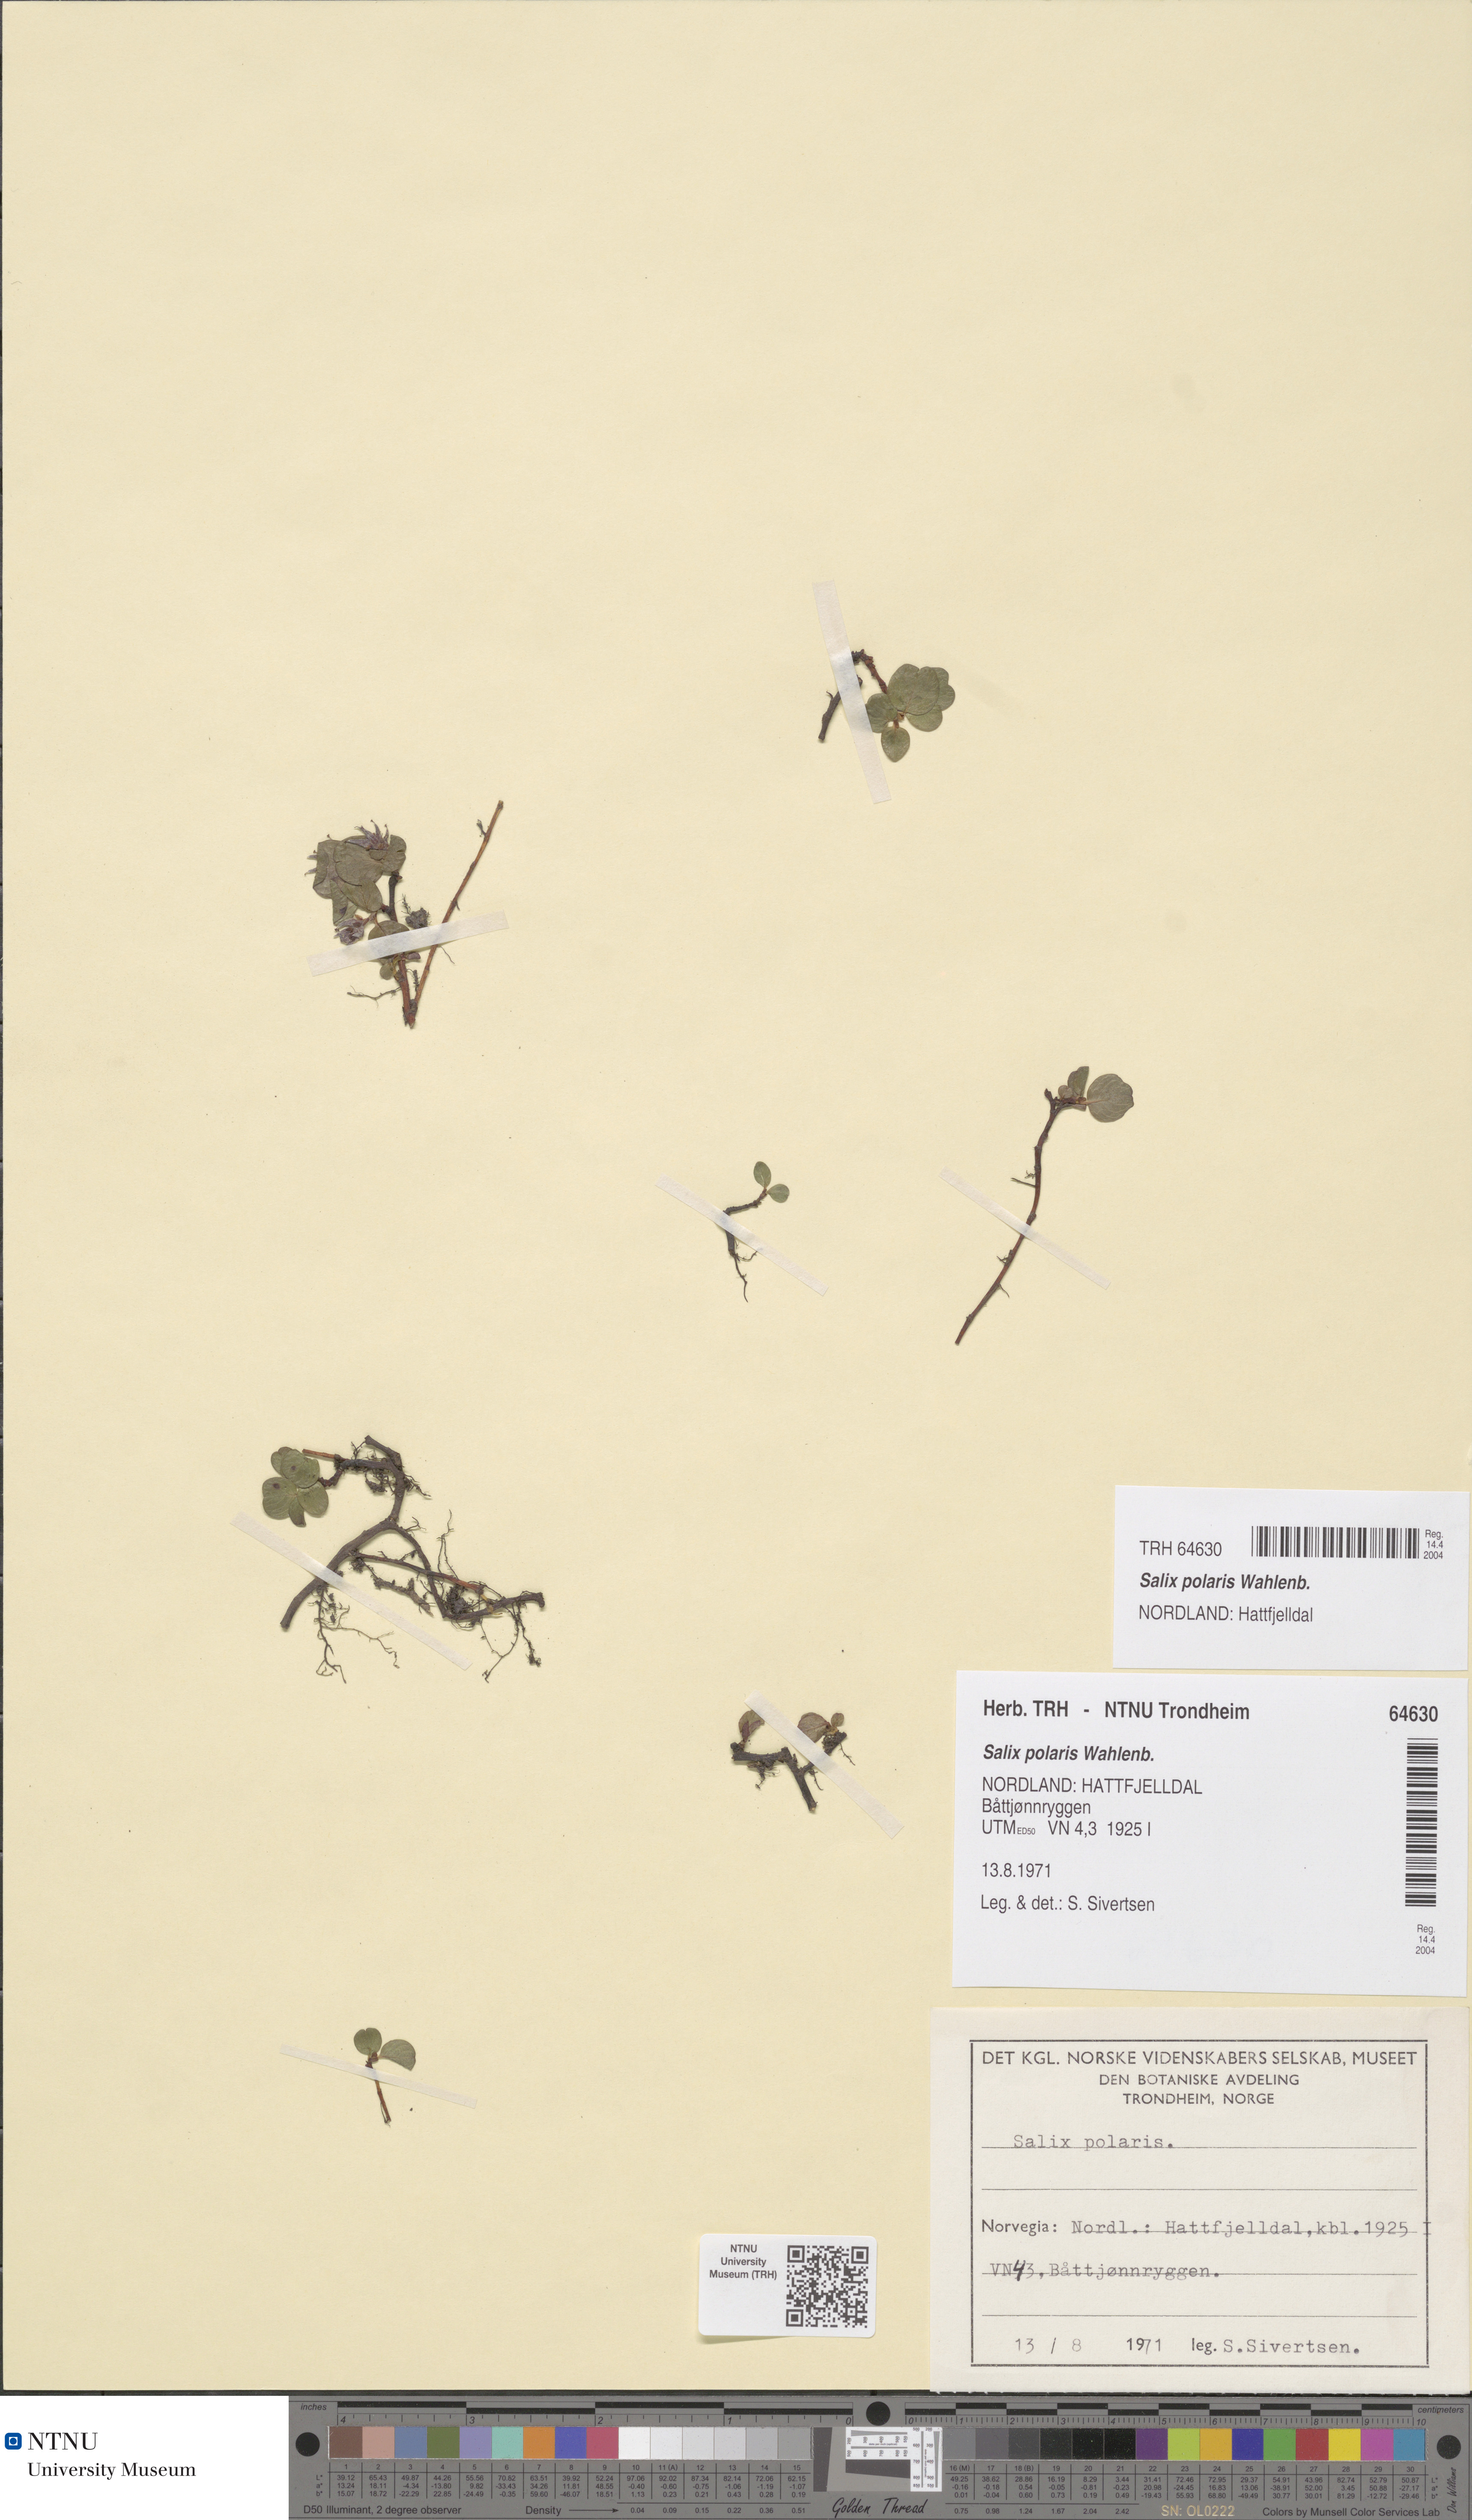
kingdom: Plantae
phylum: Tracheophyta
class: Magnoliopsida
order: Malpighiales
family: Salicaceae
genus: Salix
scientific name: Salix polaris
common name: Polar willow
